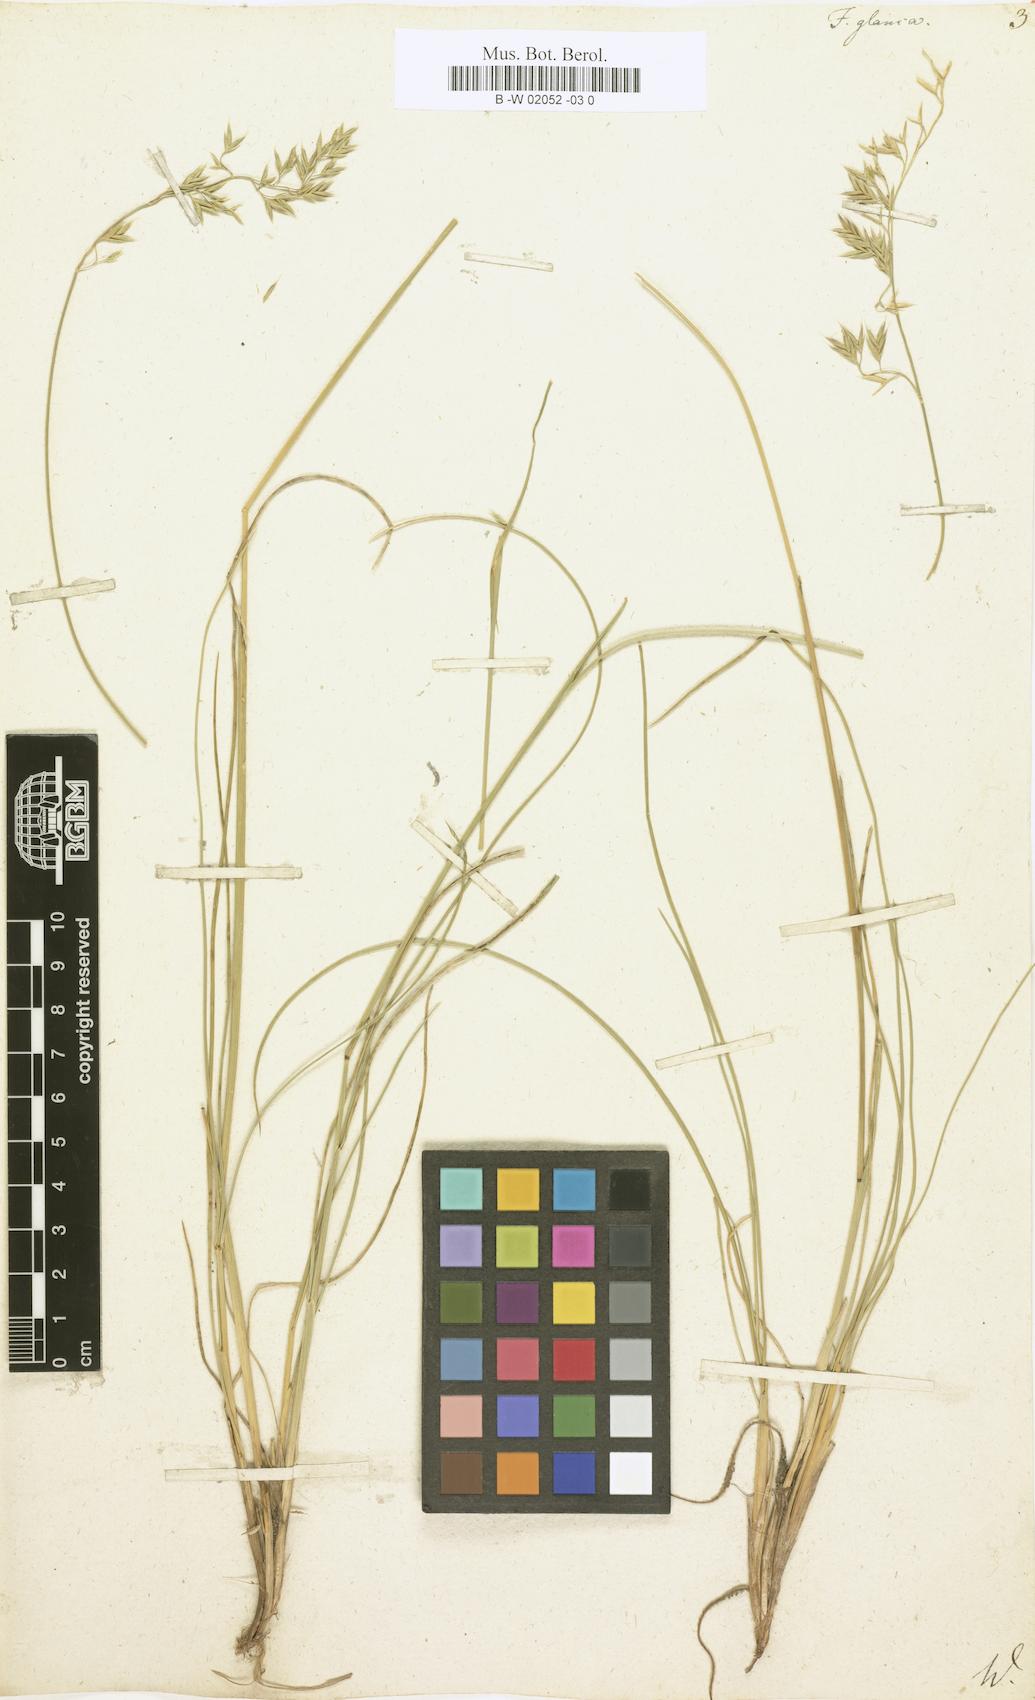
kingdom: Plantae
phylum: Tracheophyta
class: Liliopsida
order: Poales
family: Poaceae
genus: Festuca
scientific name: Festuca glauca
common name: Blue fescue
